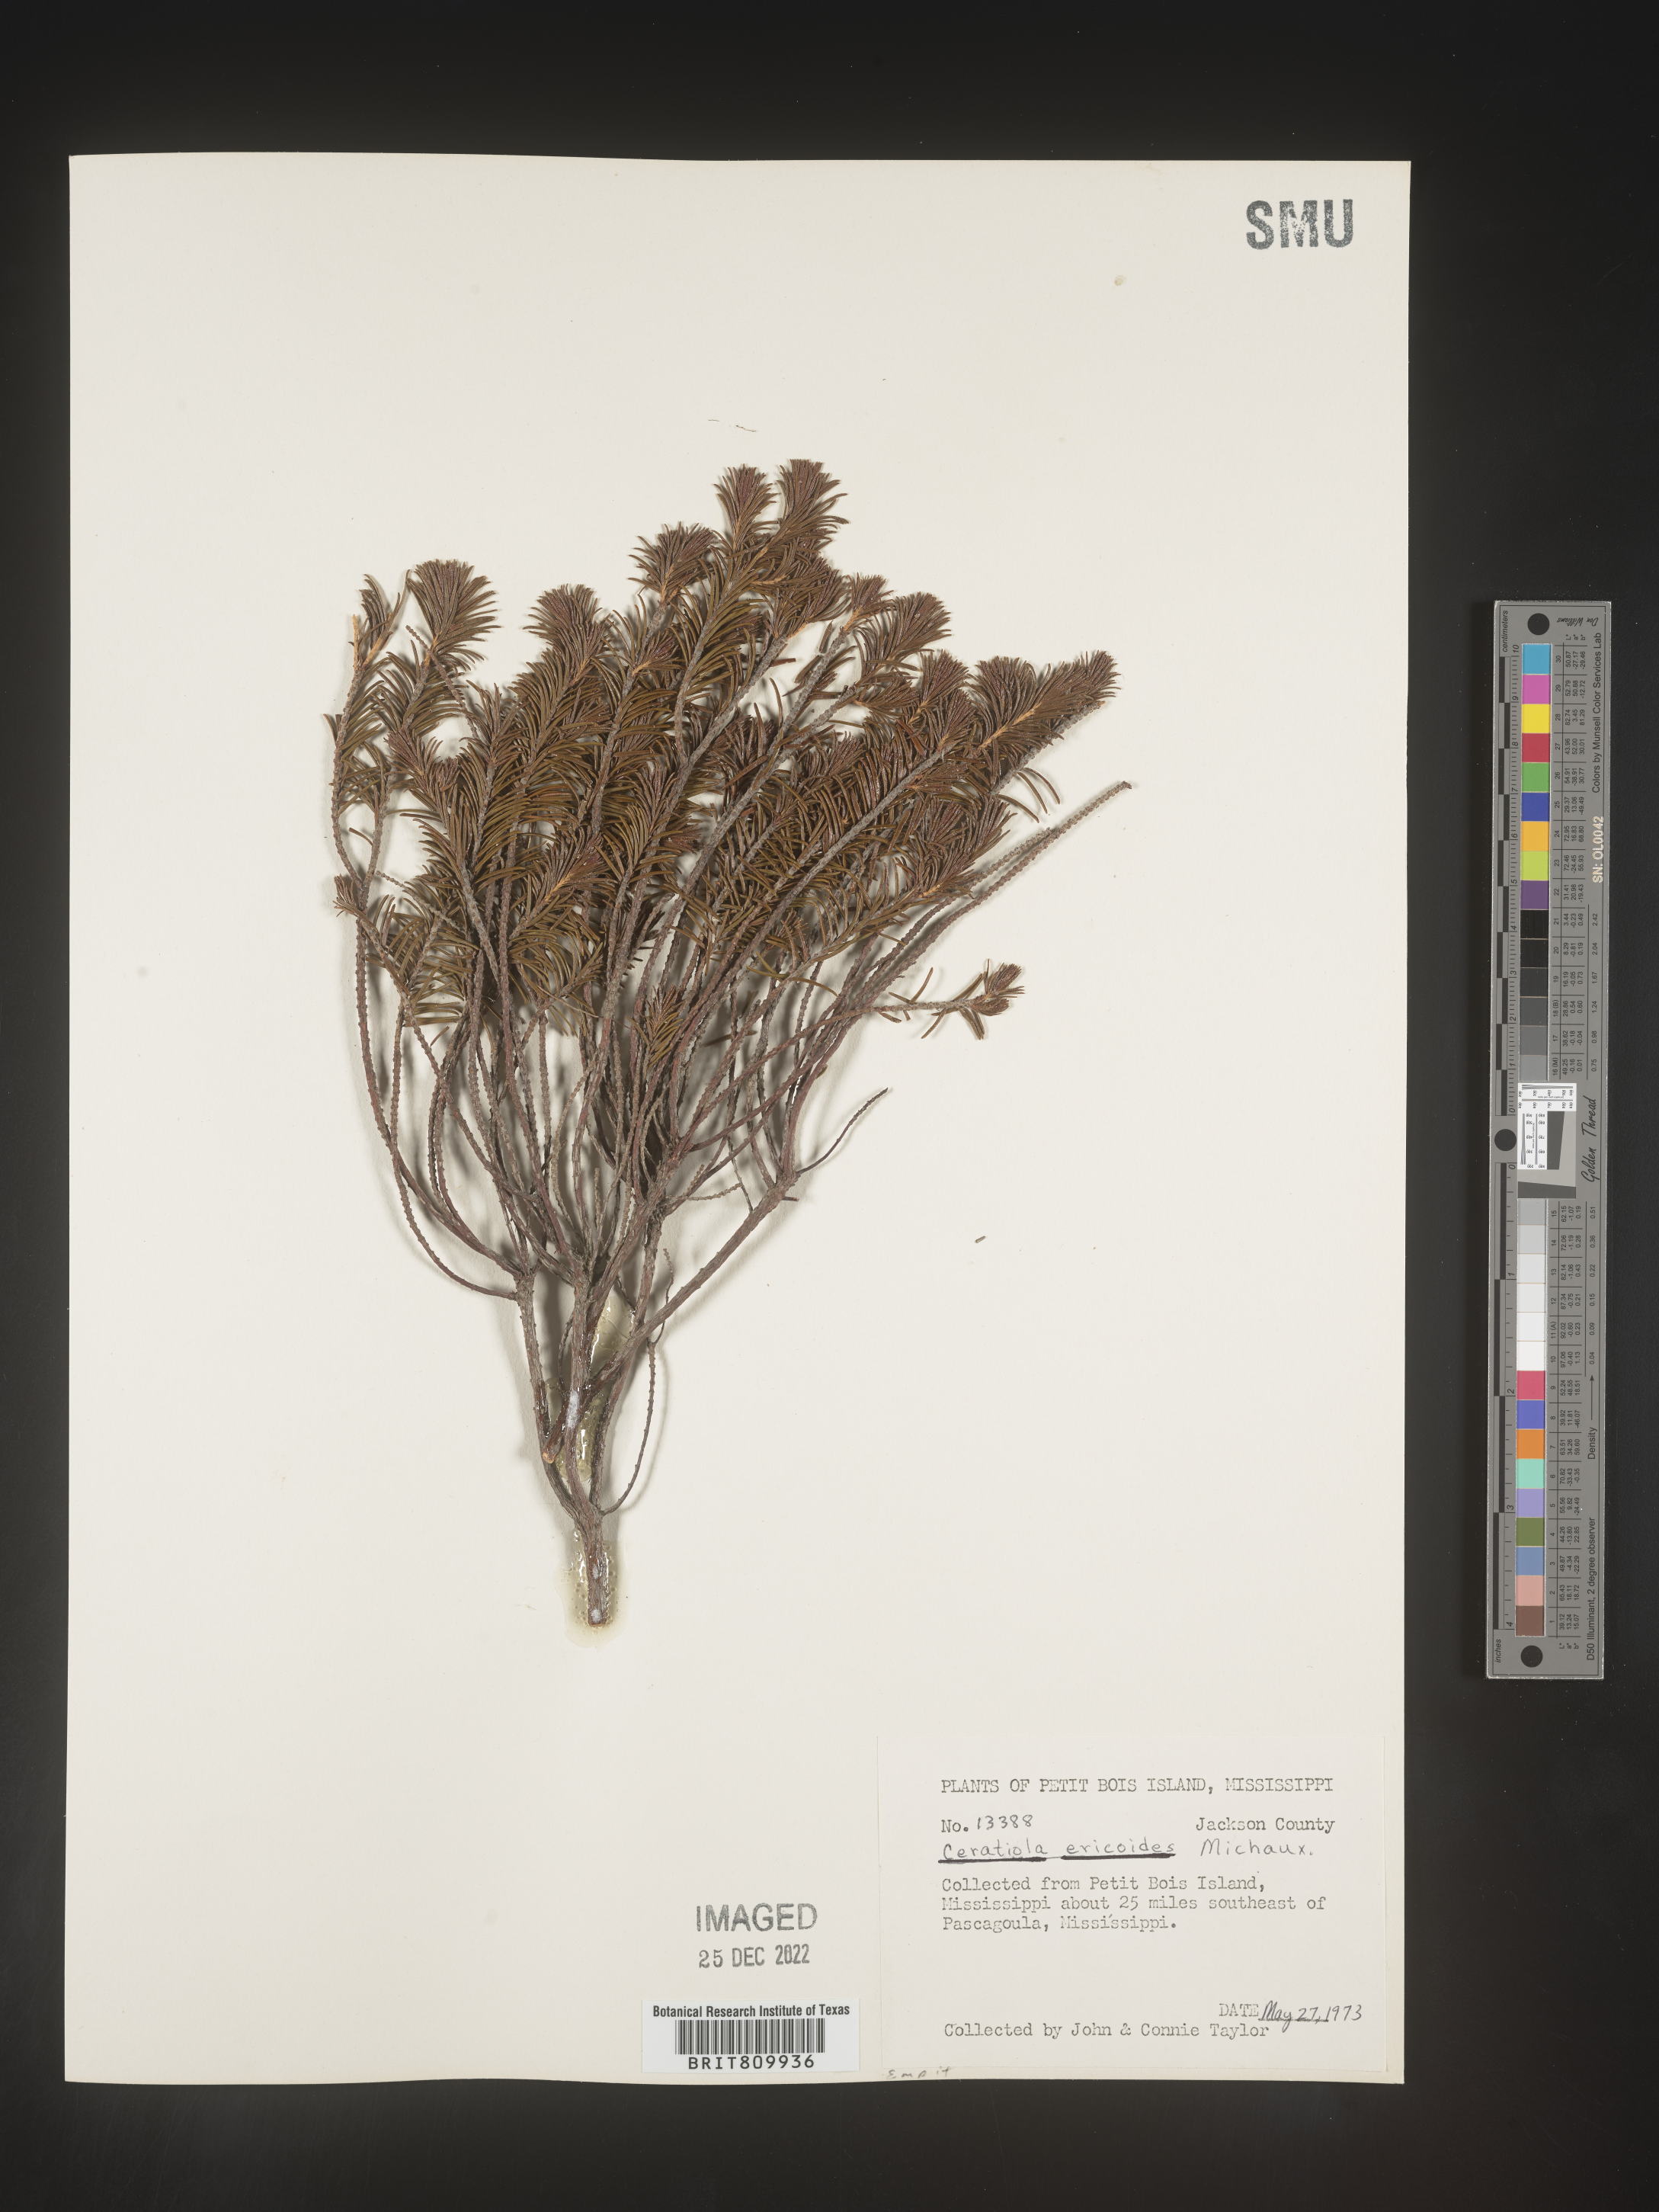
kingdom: Plantae
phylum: Tracheophyta
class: Magnoliopsida
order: Ericales
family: Ericaceae
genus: Ceratiola
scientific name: Ceratiola ericoides
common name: Sandhill-rosemary
